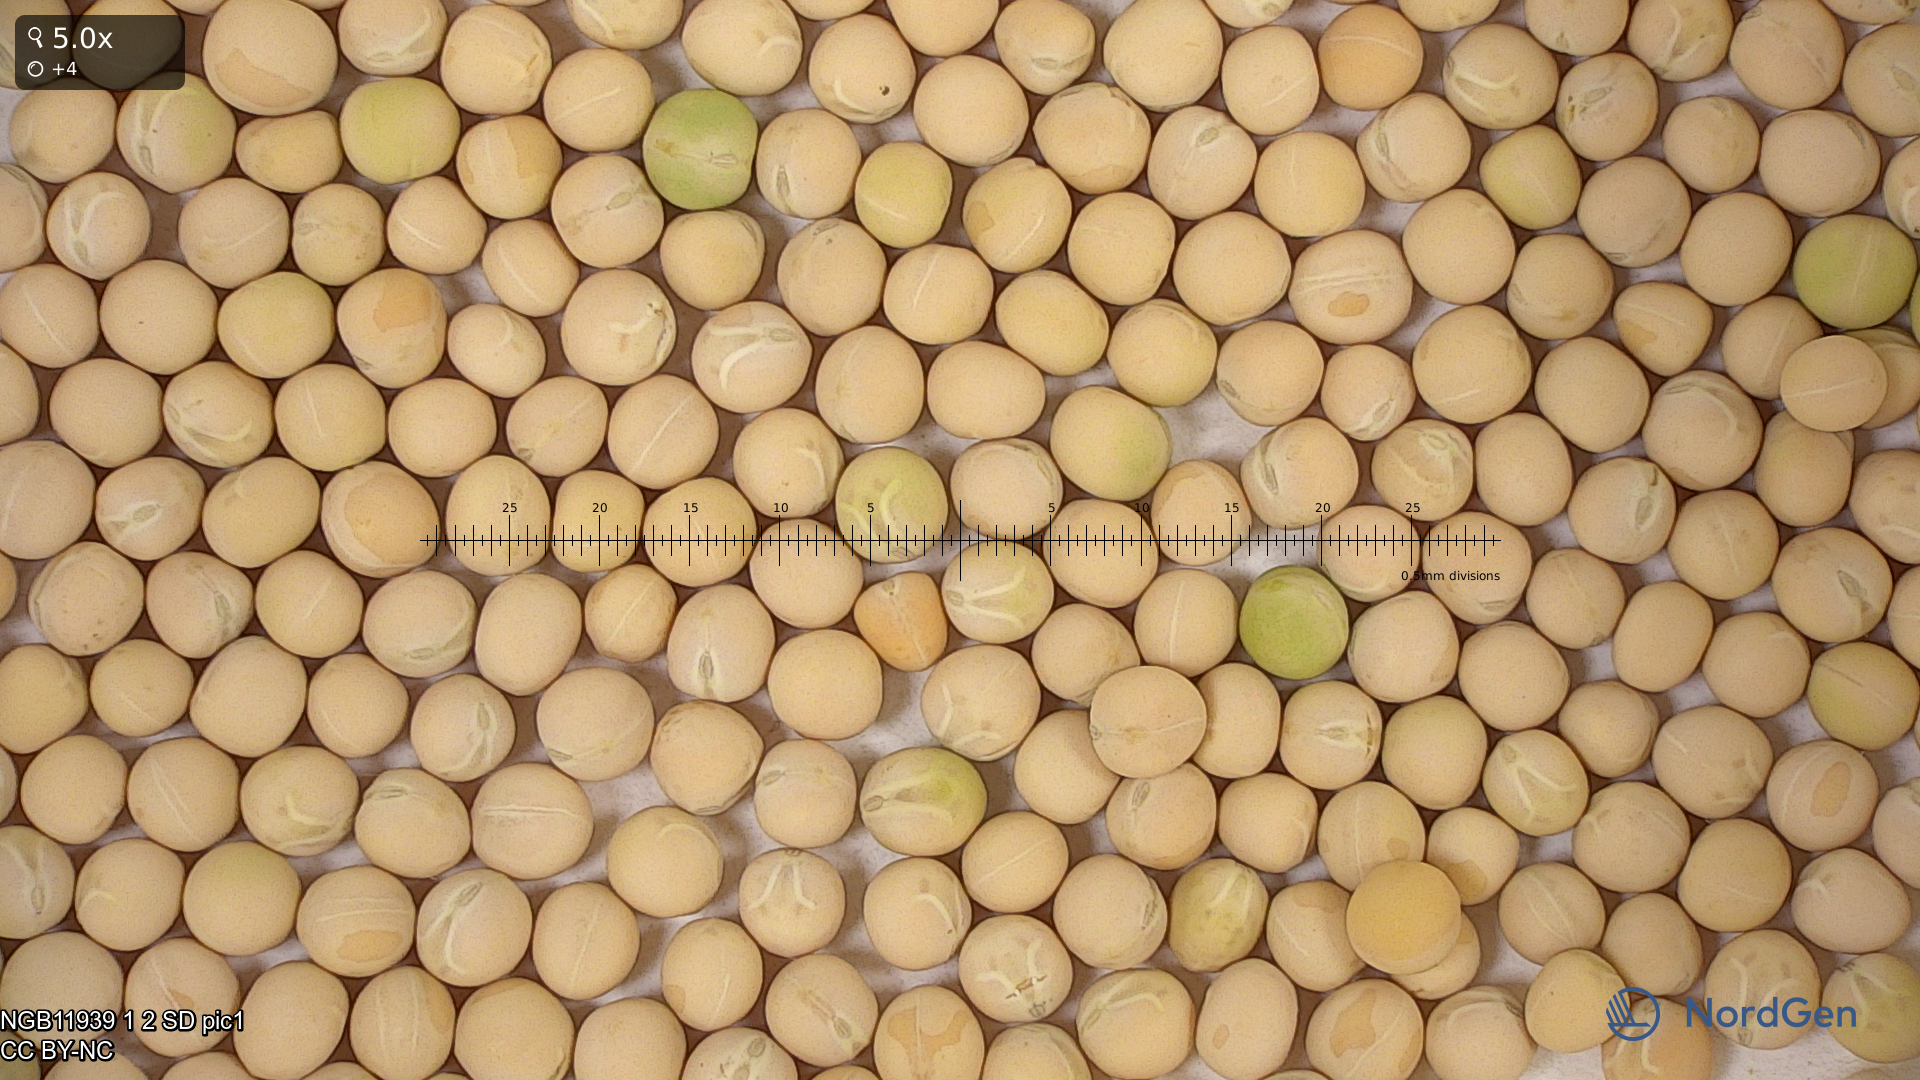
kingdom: Plantae
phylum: Tracheophyta
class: Magnoliopsida
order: Fabales
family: Fabaceae
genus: Lathyrus
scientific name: Lathyrus oleraceus
